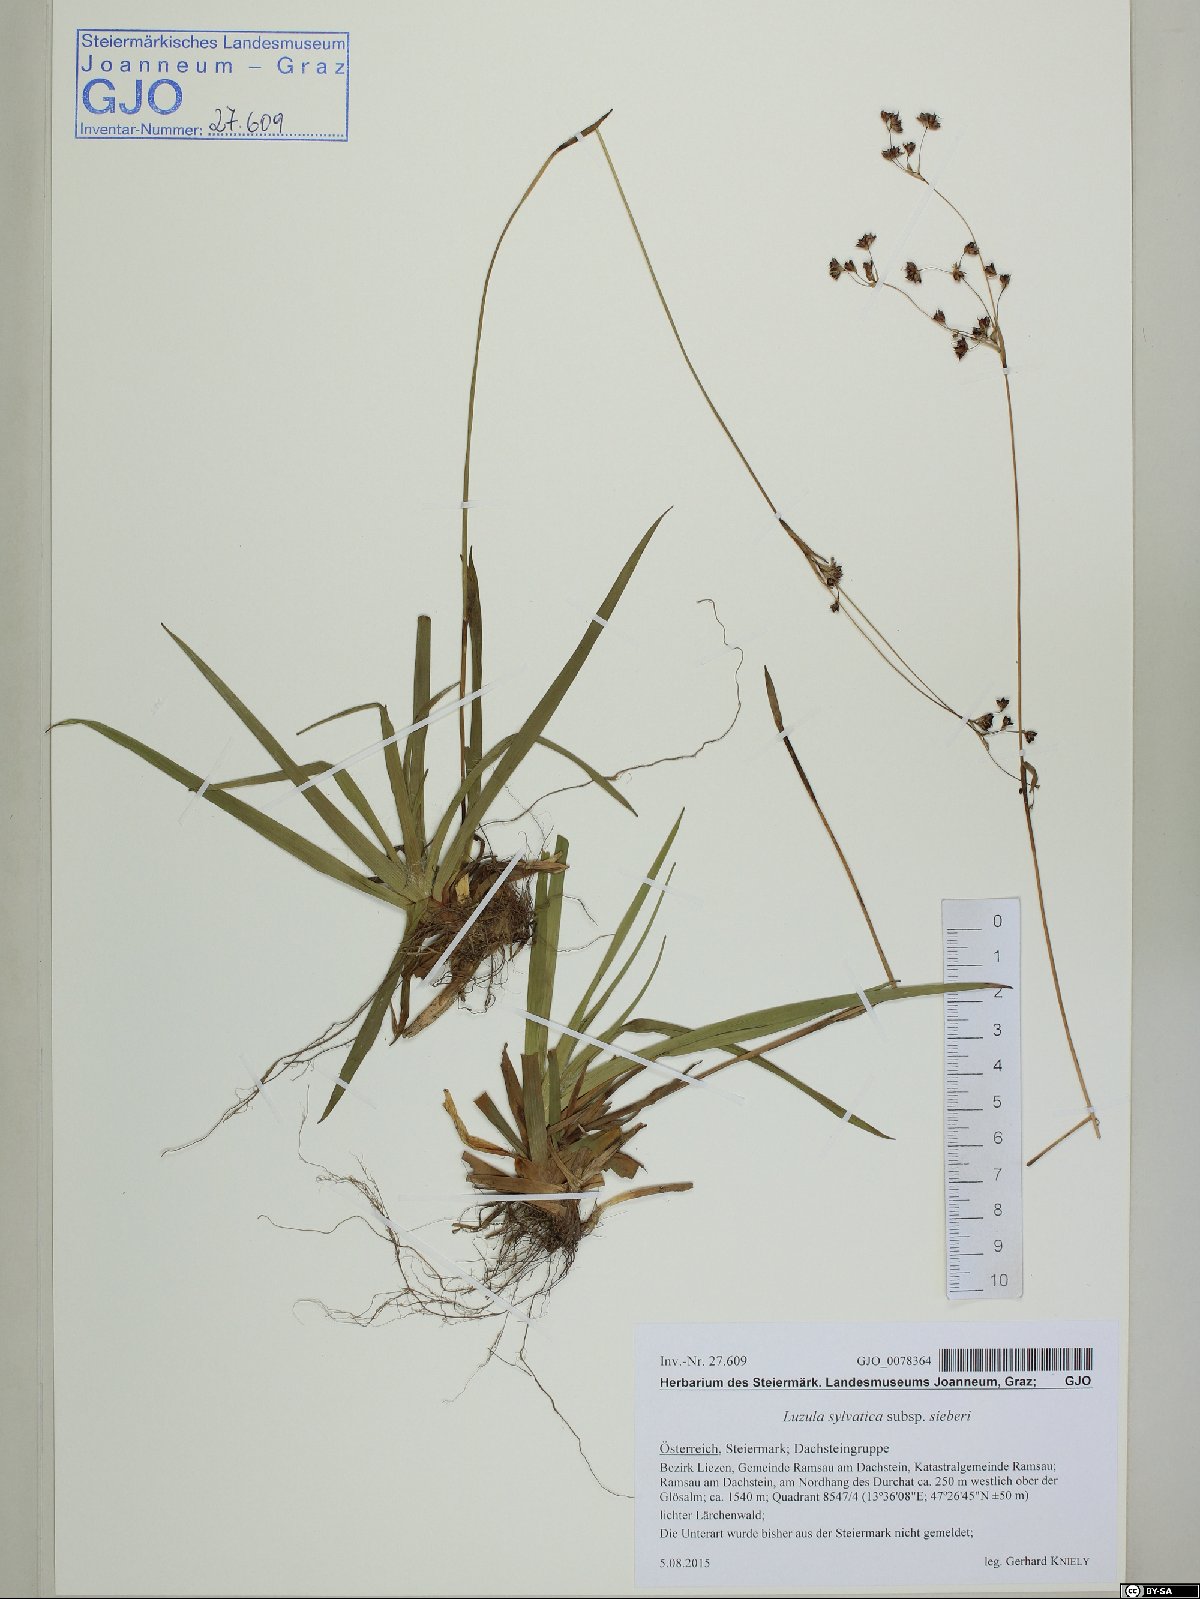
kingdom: Plantae
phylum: Tracheophyta
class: Liliopsida
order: Poales
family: Juncaceae
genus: Luzula
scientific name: Luzula sylvatica
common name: Great wood-rush
